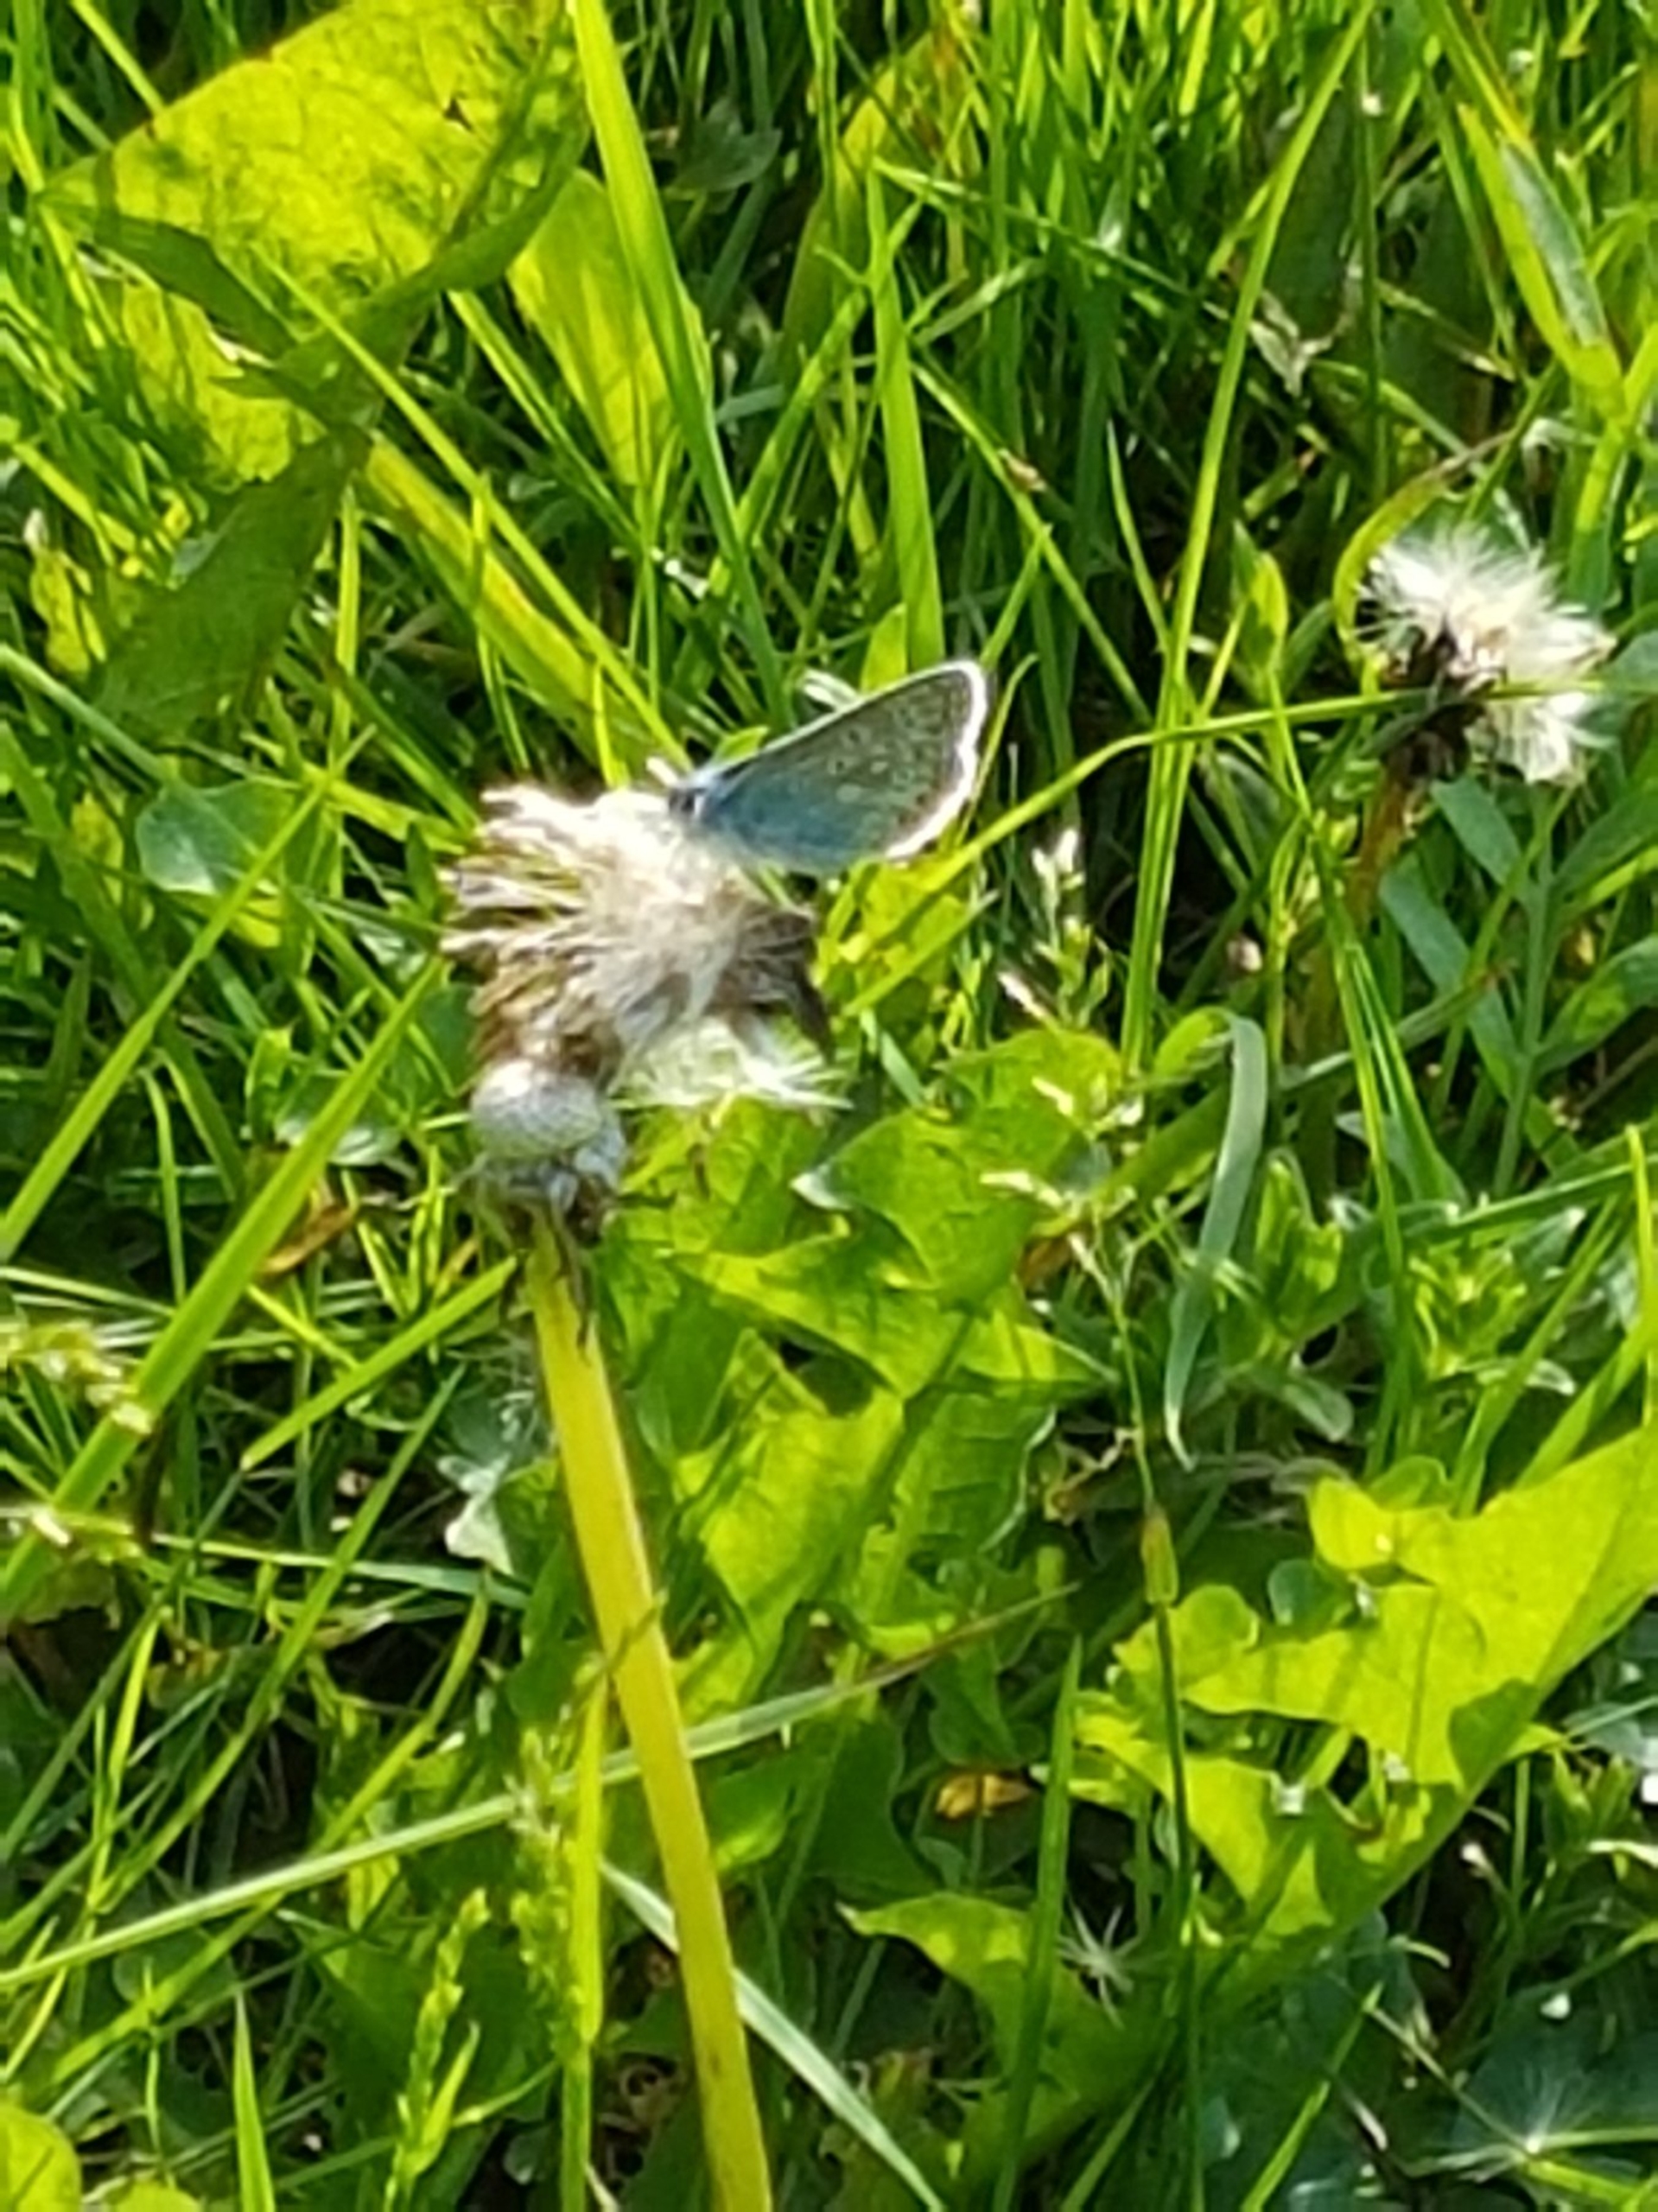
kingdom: Animalia
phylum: Arthropoda
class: Insecta
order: Lepidoptera
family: Lycaenidae
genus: Polyommatus
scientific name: Polyommatus icarus
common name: Almindelig blåfugl
